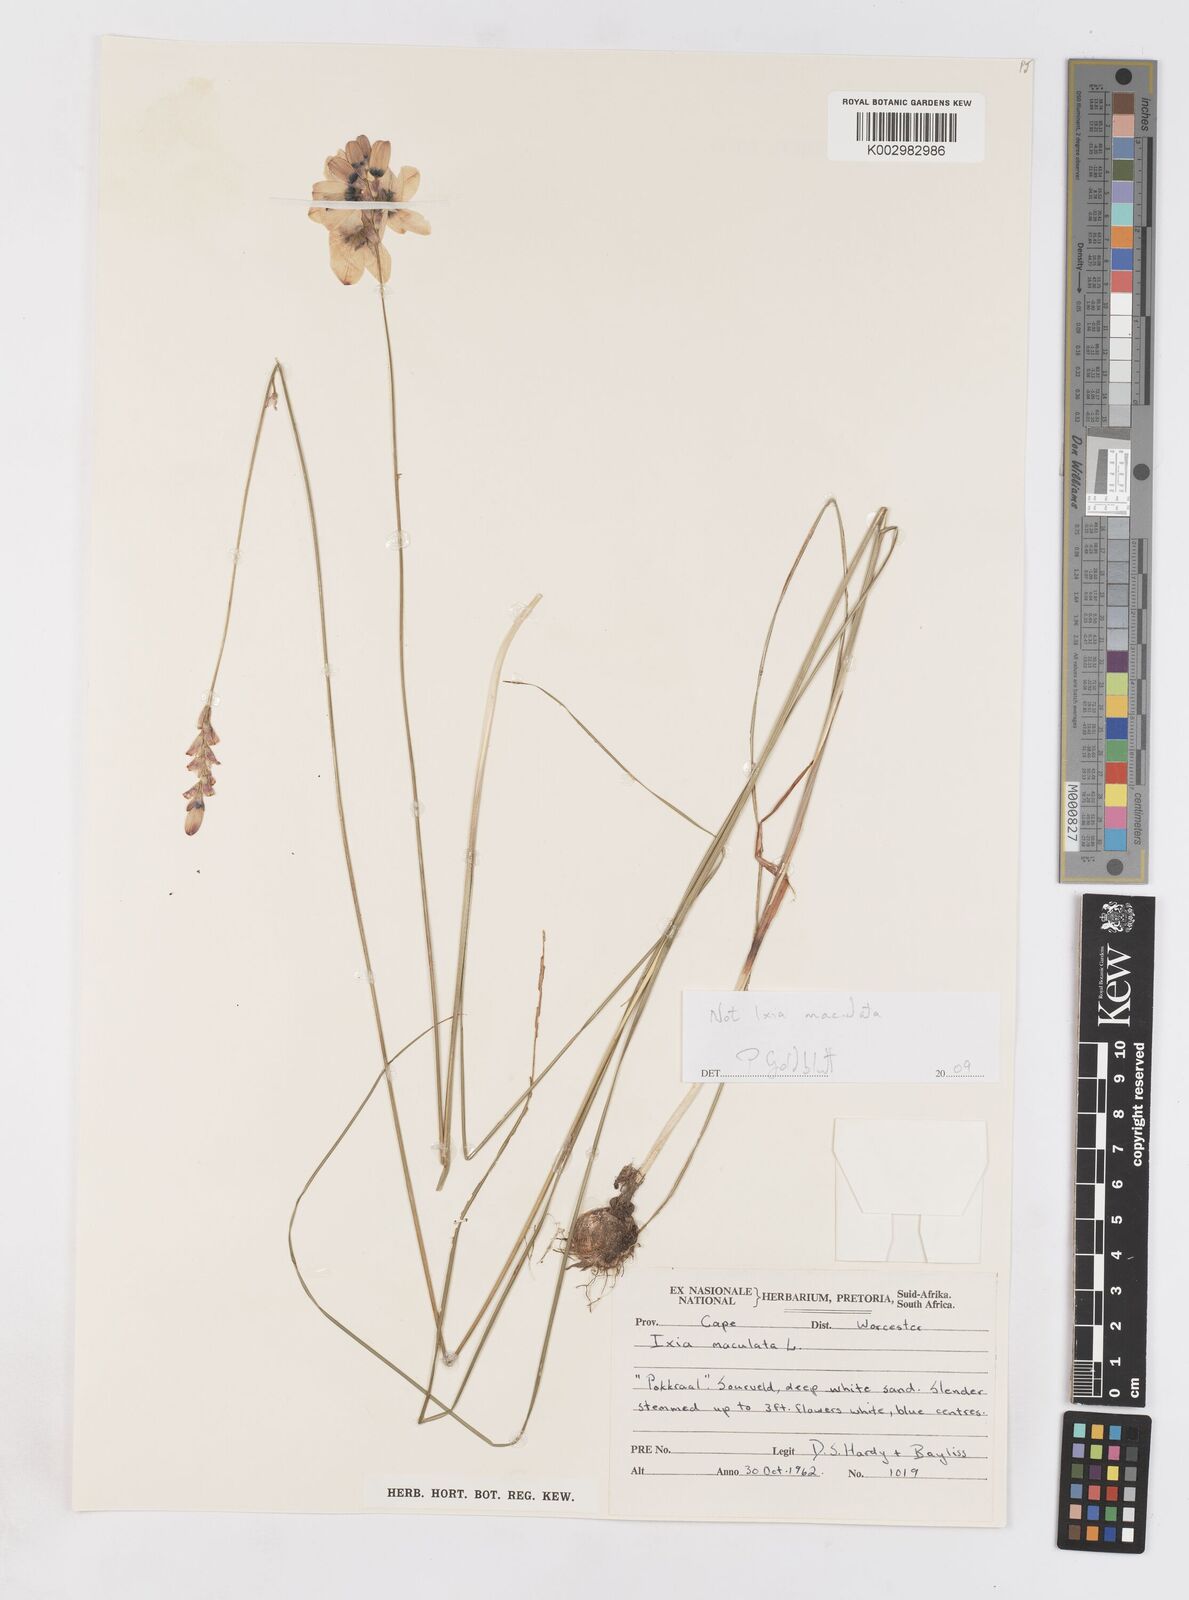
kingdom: Plantae
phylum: Tracheophyta
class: Liliopsida
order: Asparagales
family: Iridaceae
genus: Ixia
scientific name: Ixia
